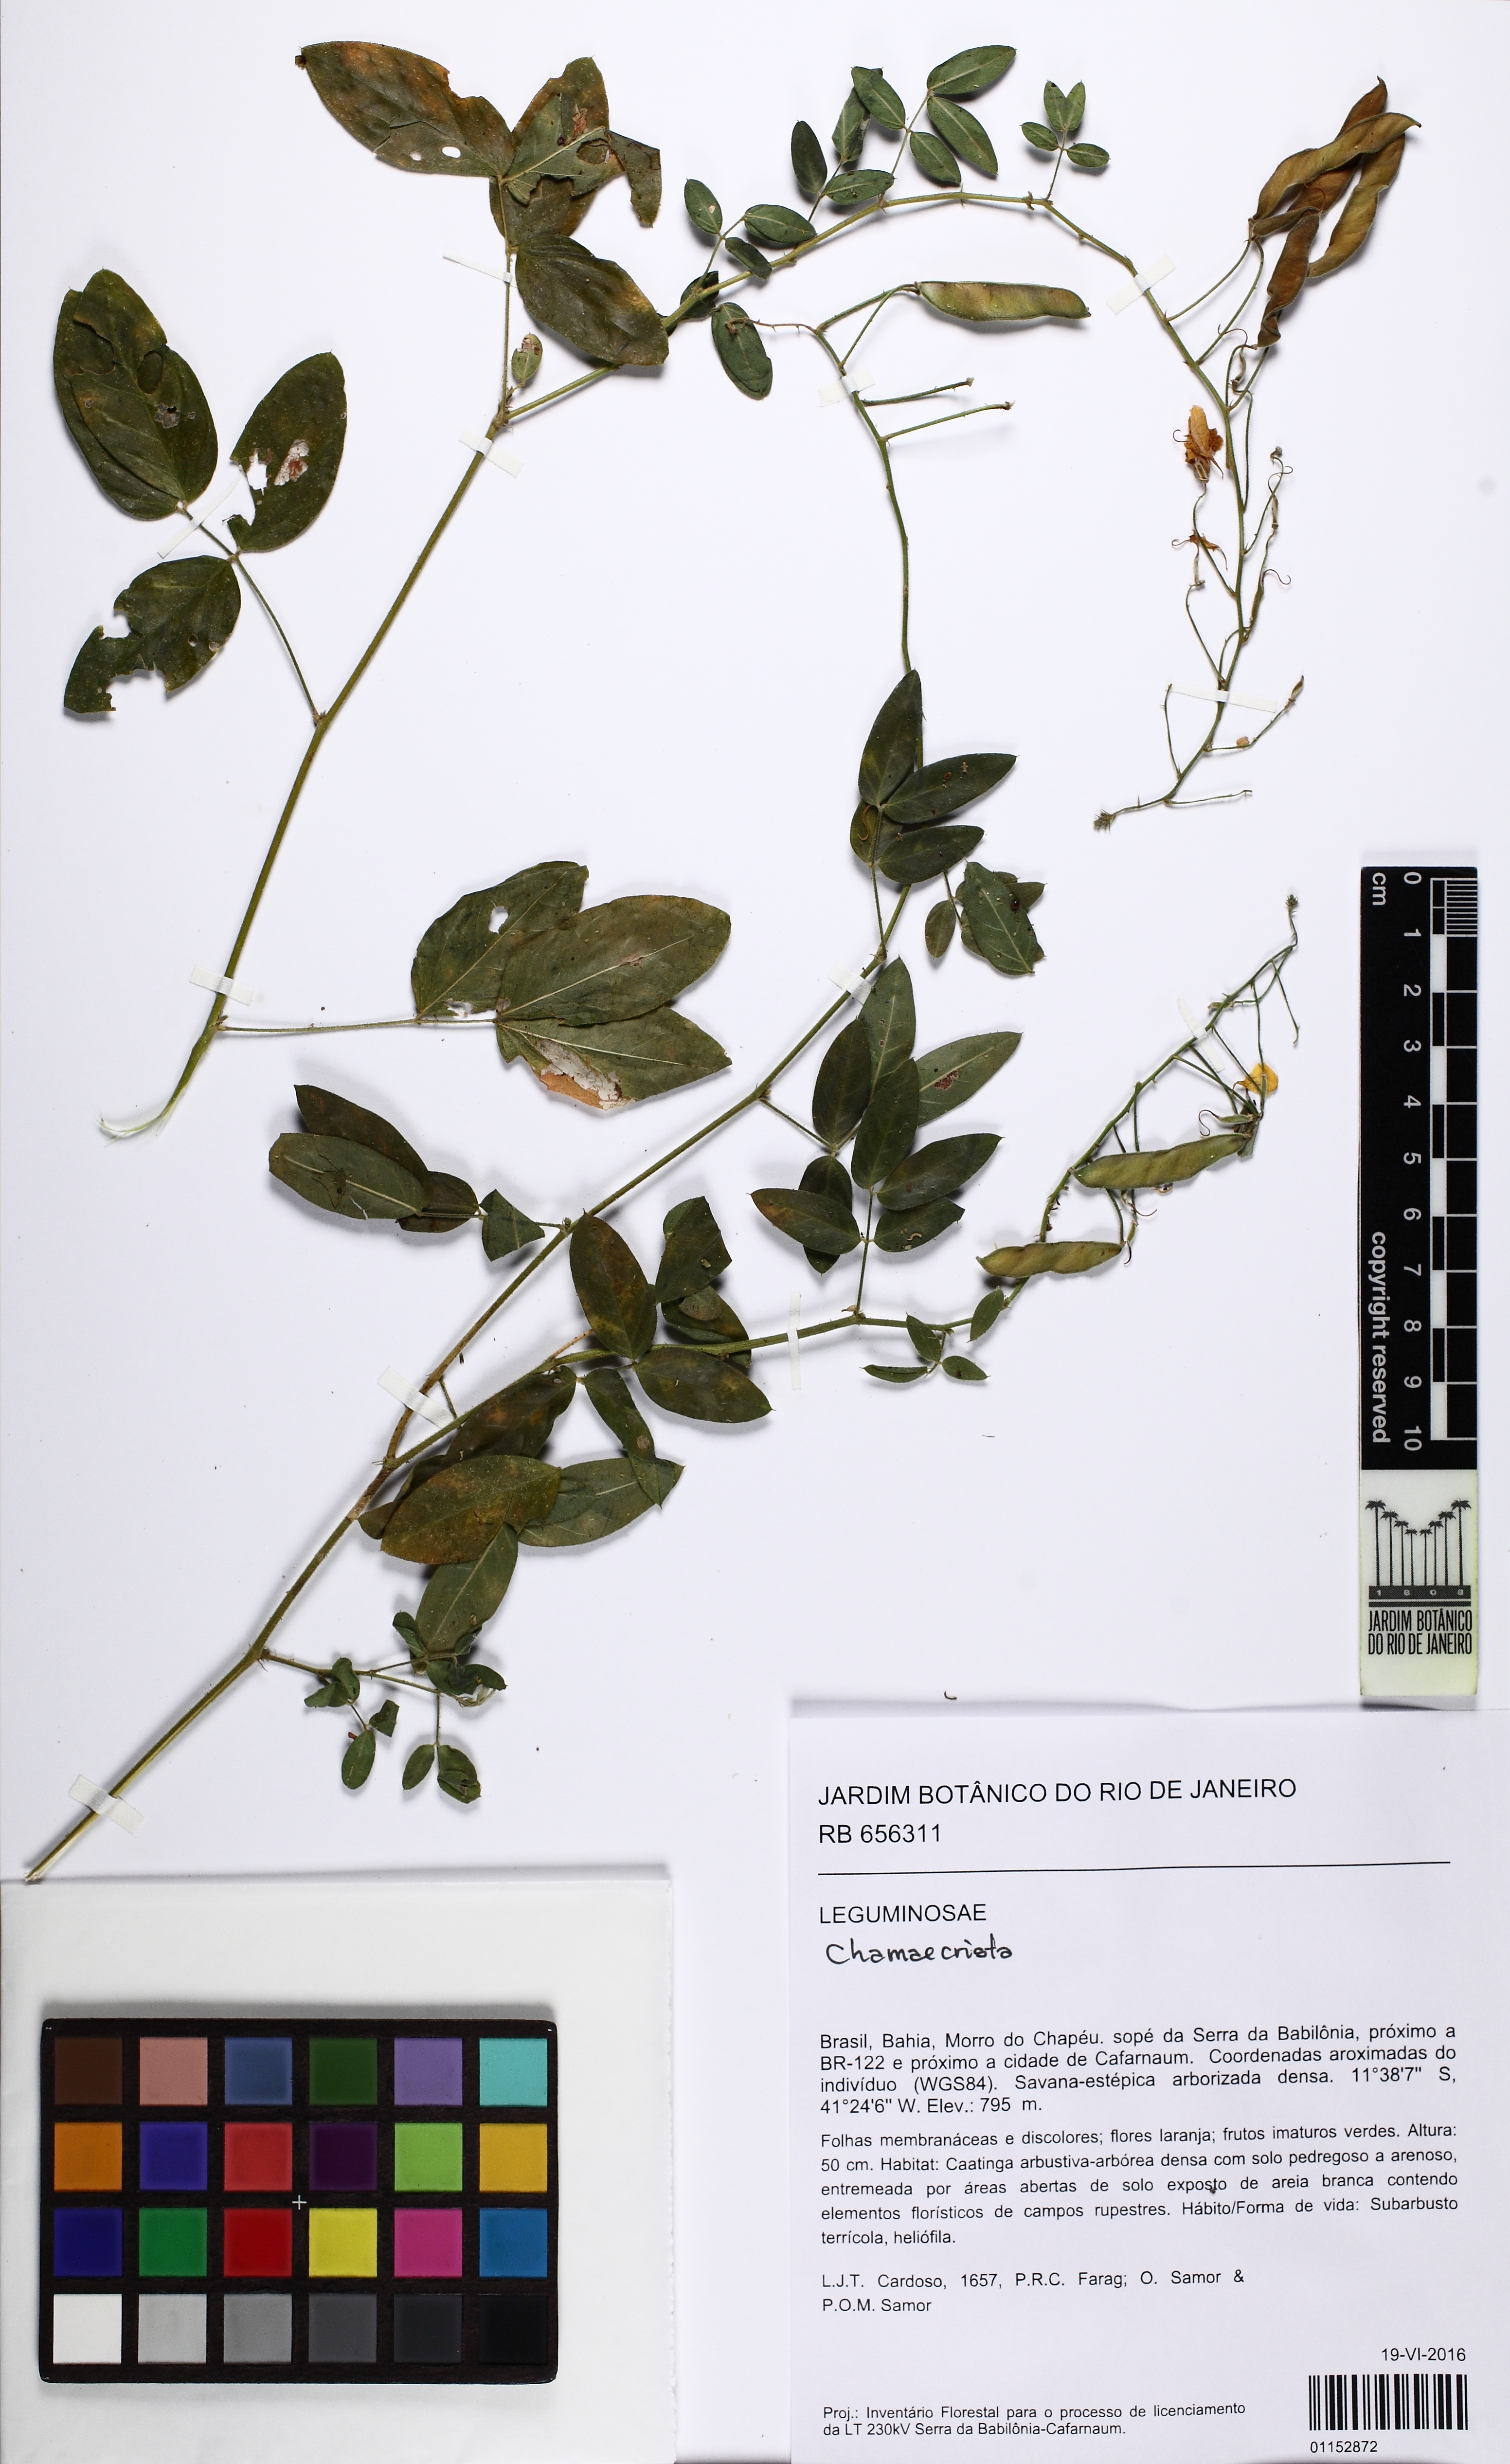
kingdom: Plantae
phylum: Tracheophyta
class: Magnoliopsida
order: Fabales
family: Fabaceae
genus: Chamaecrista
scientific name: Chamaecrista
